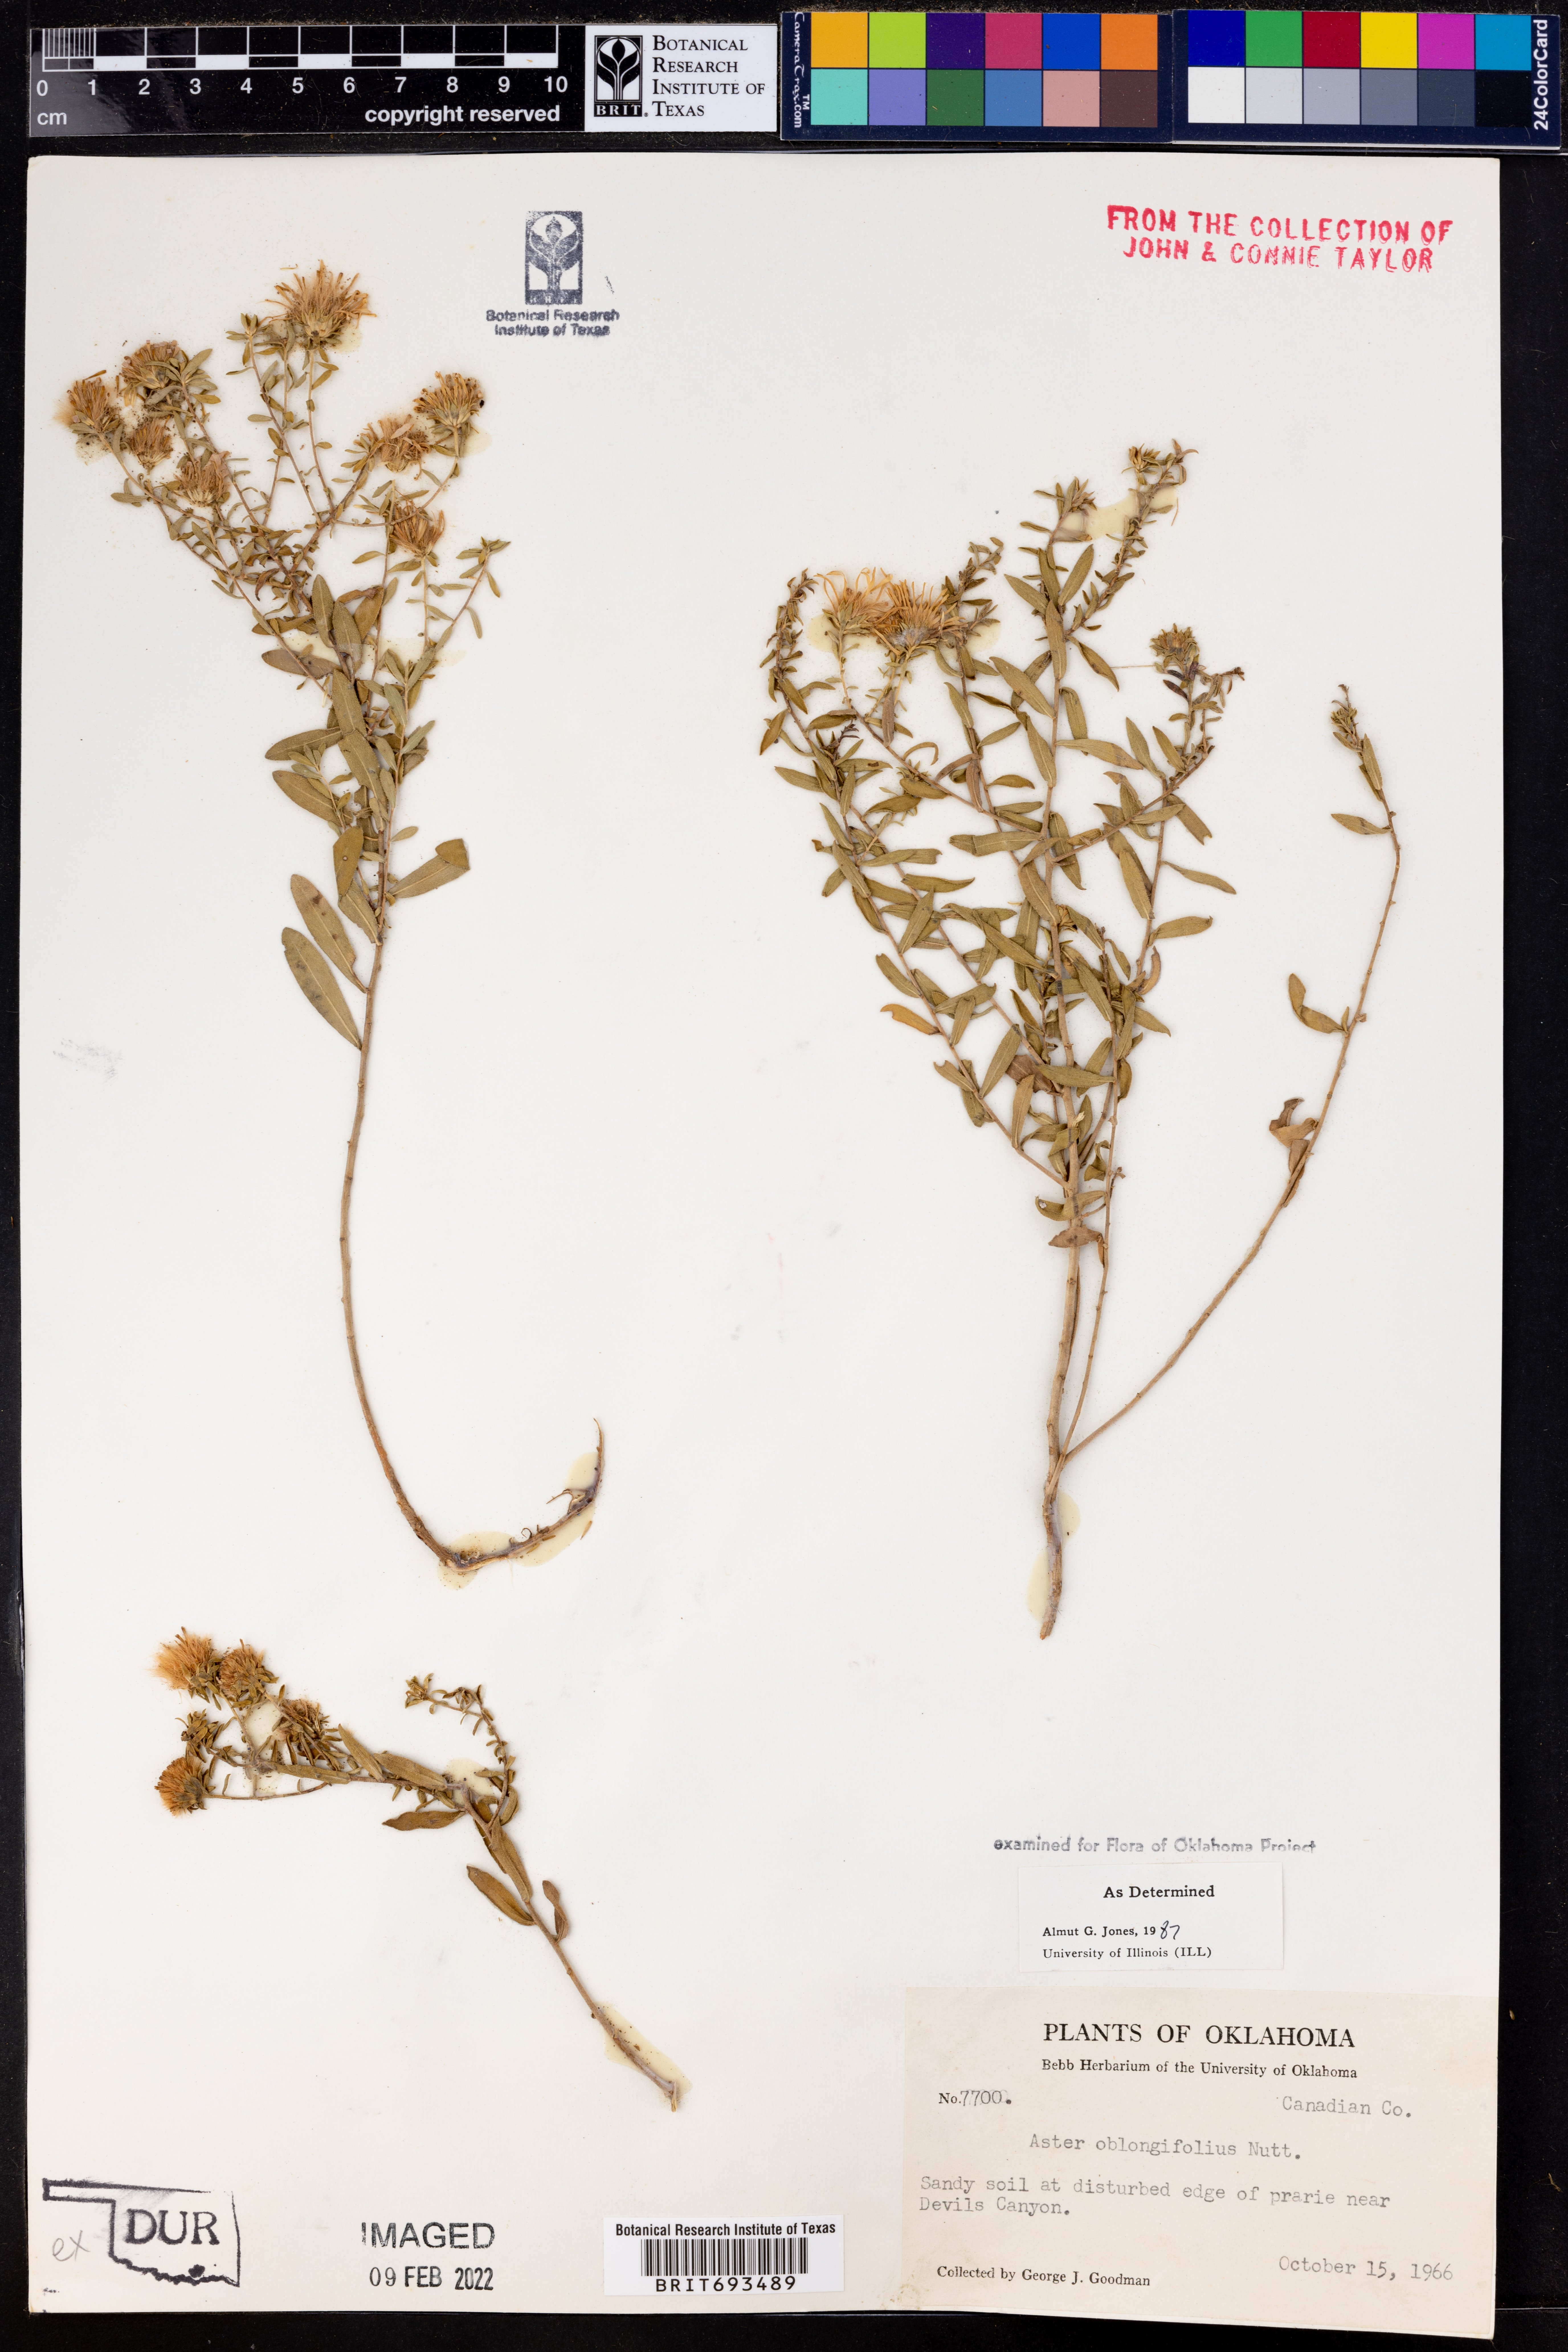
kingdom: Plantae
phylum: Tracheophyta
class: Magnoliopsida
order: Asterales
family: Asteraceae
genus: Symphyotrichum
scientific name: Symphyotrichum oblongifolium
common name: Aromatic aster
